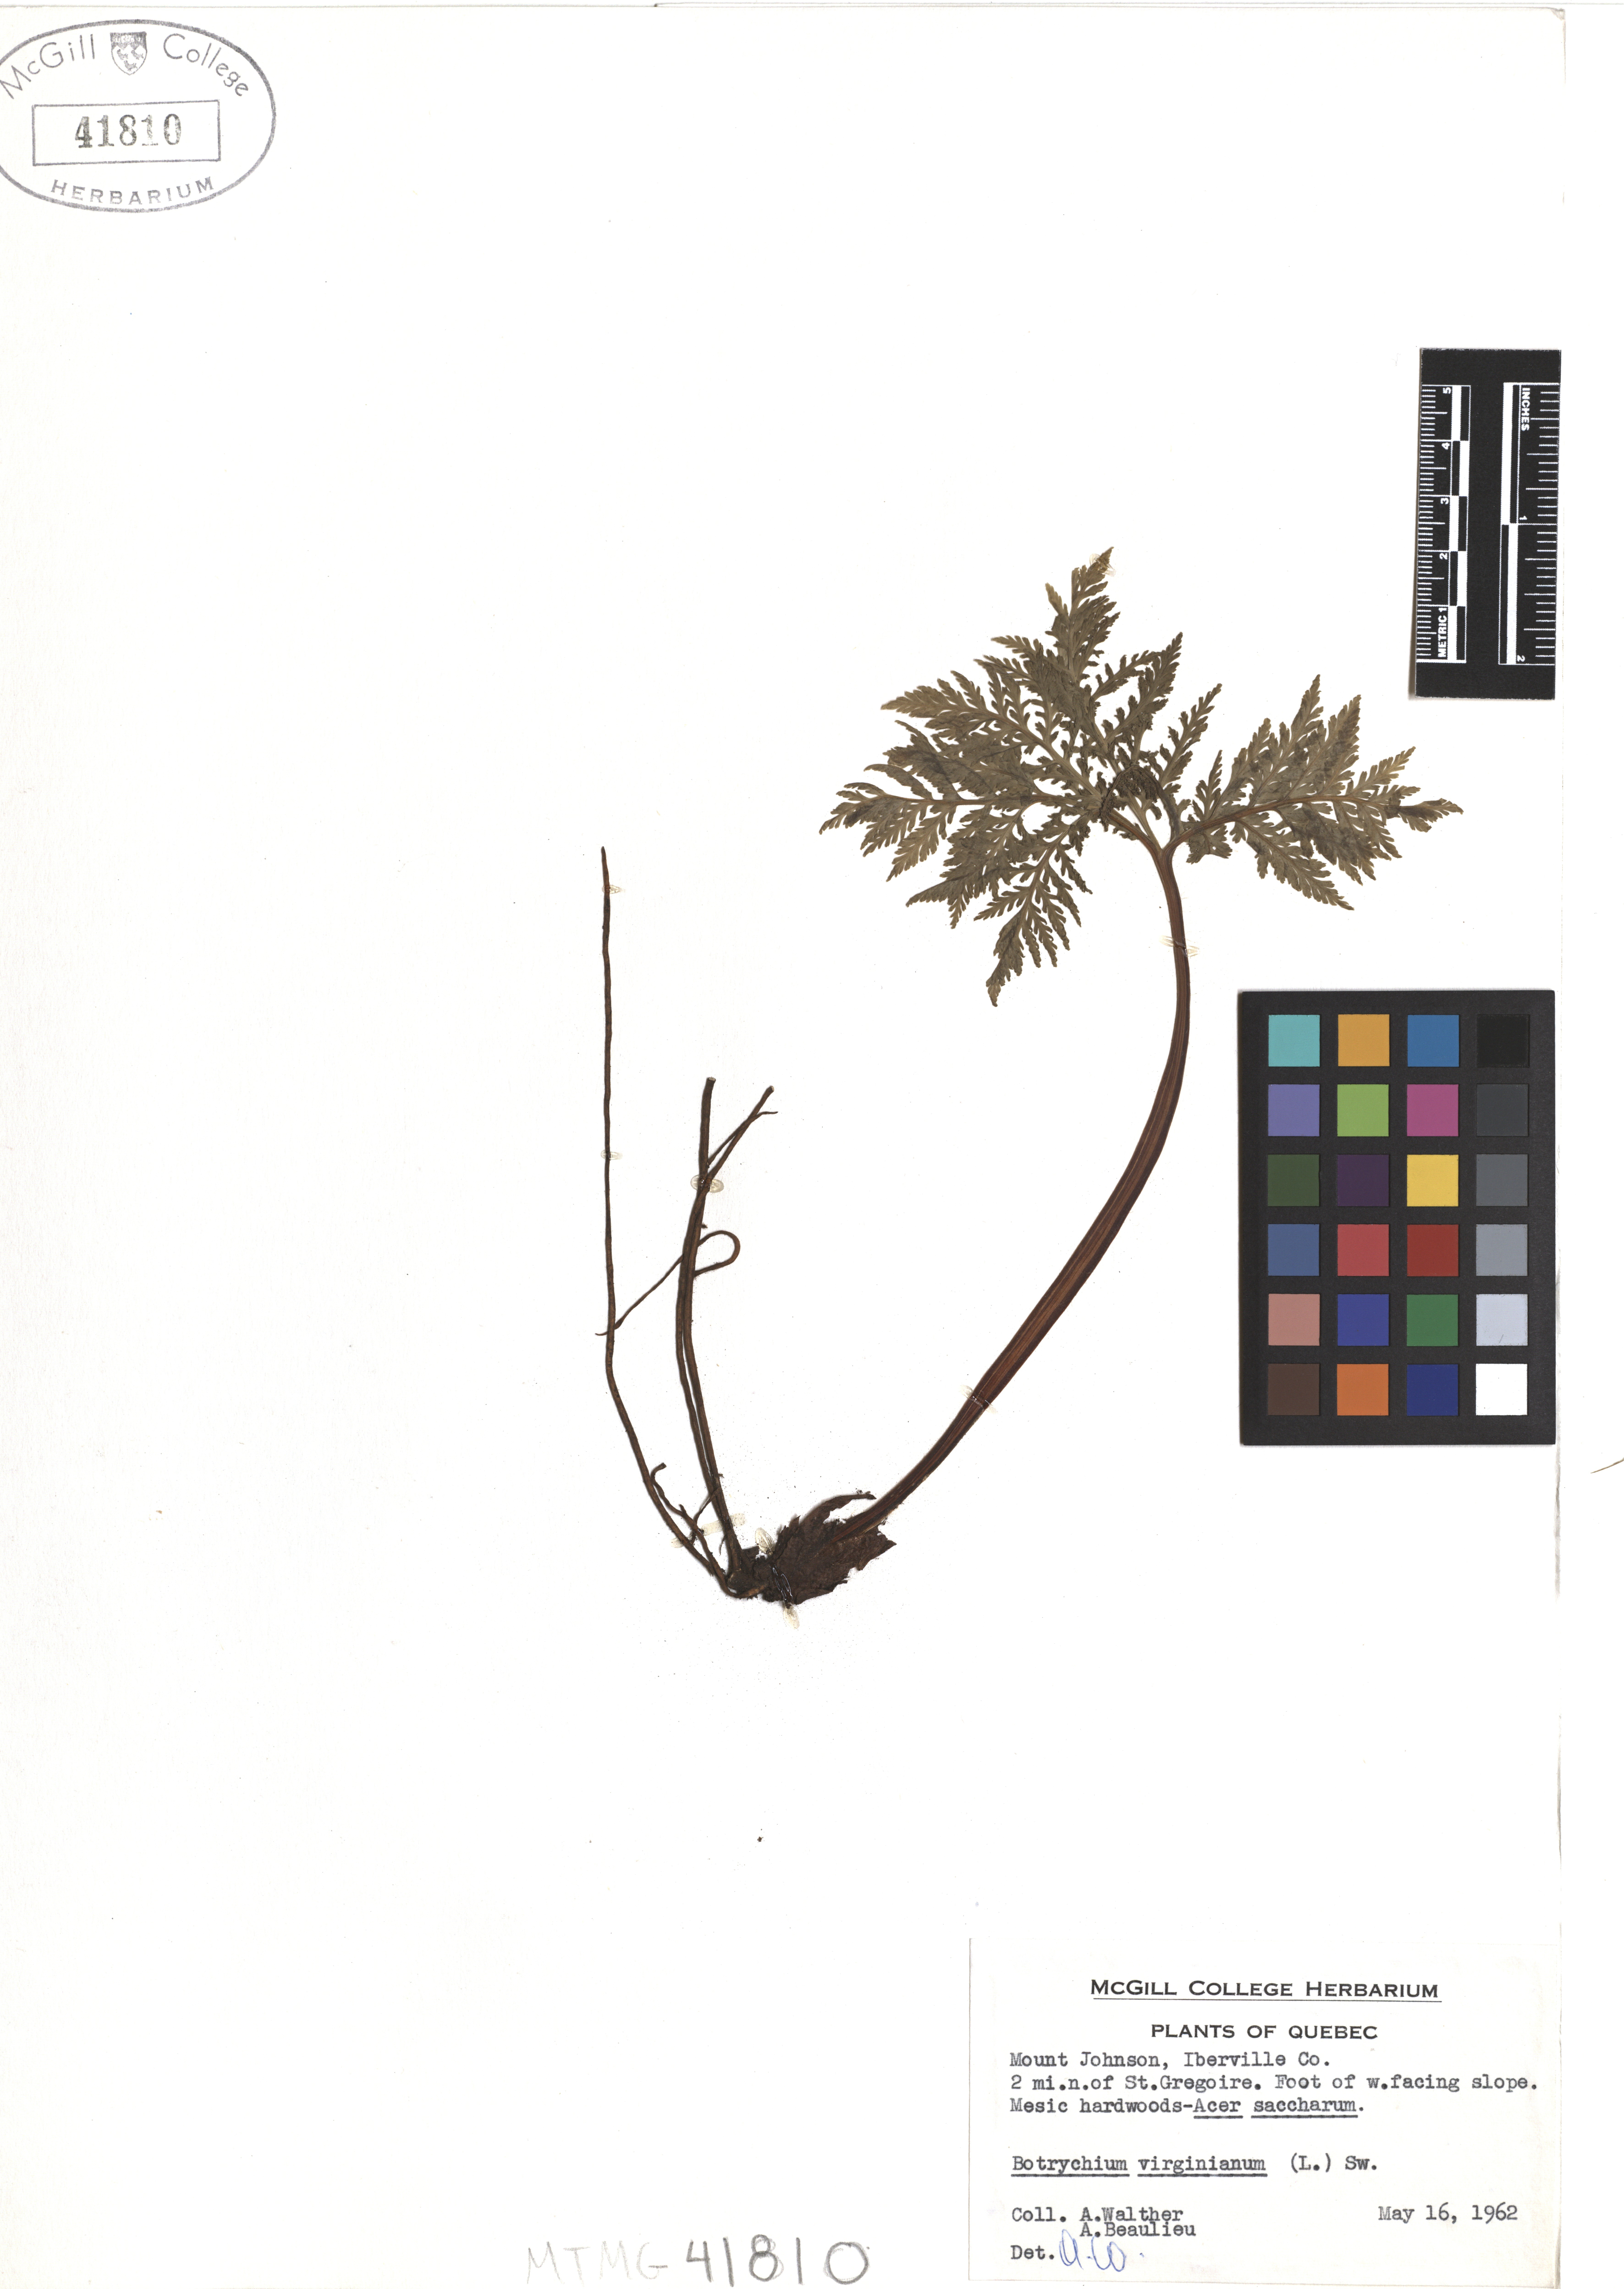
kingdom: Plantae
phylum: Tracheophyta
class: Polypodiopsida
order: Ophioglossales
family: Ophioglossaceae
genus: Botrypus
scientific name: Botrypus virginianus
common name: Common grapefern
